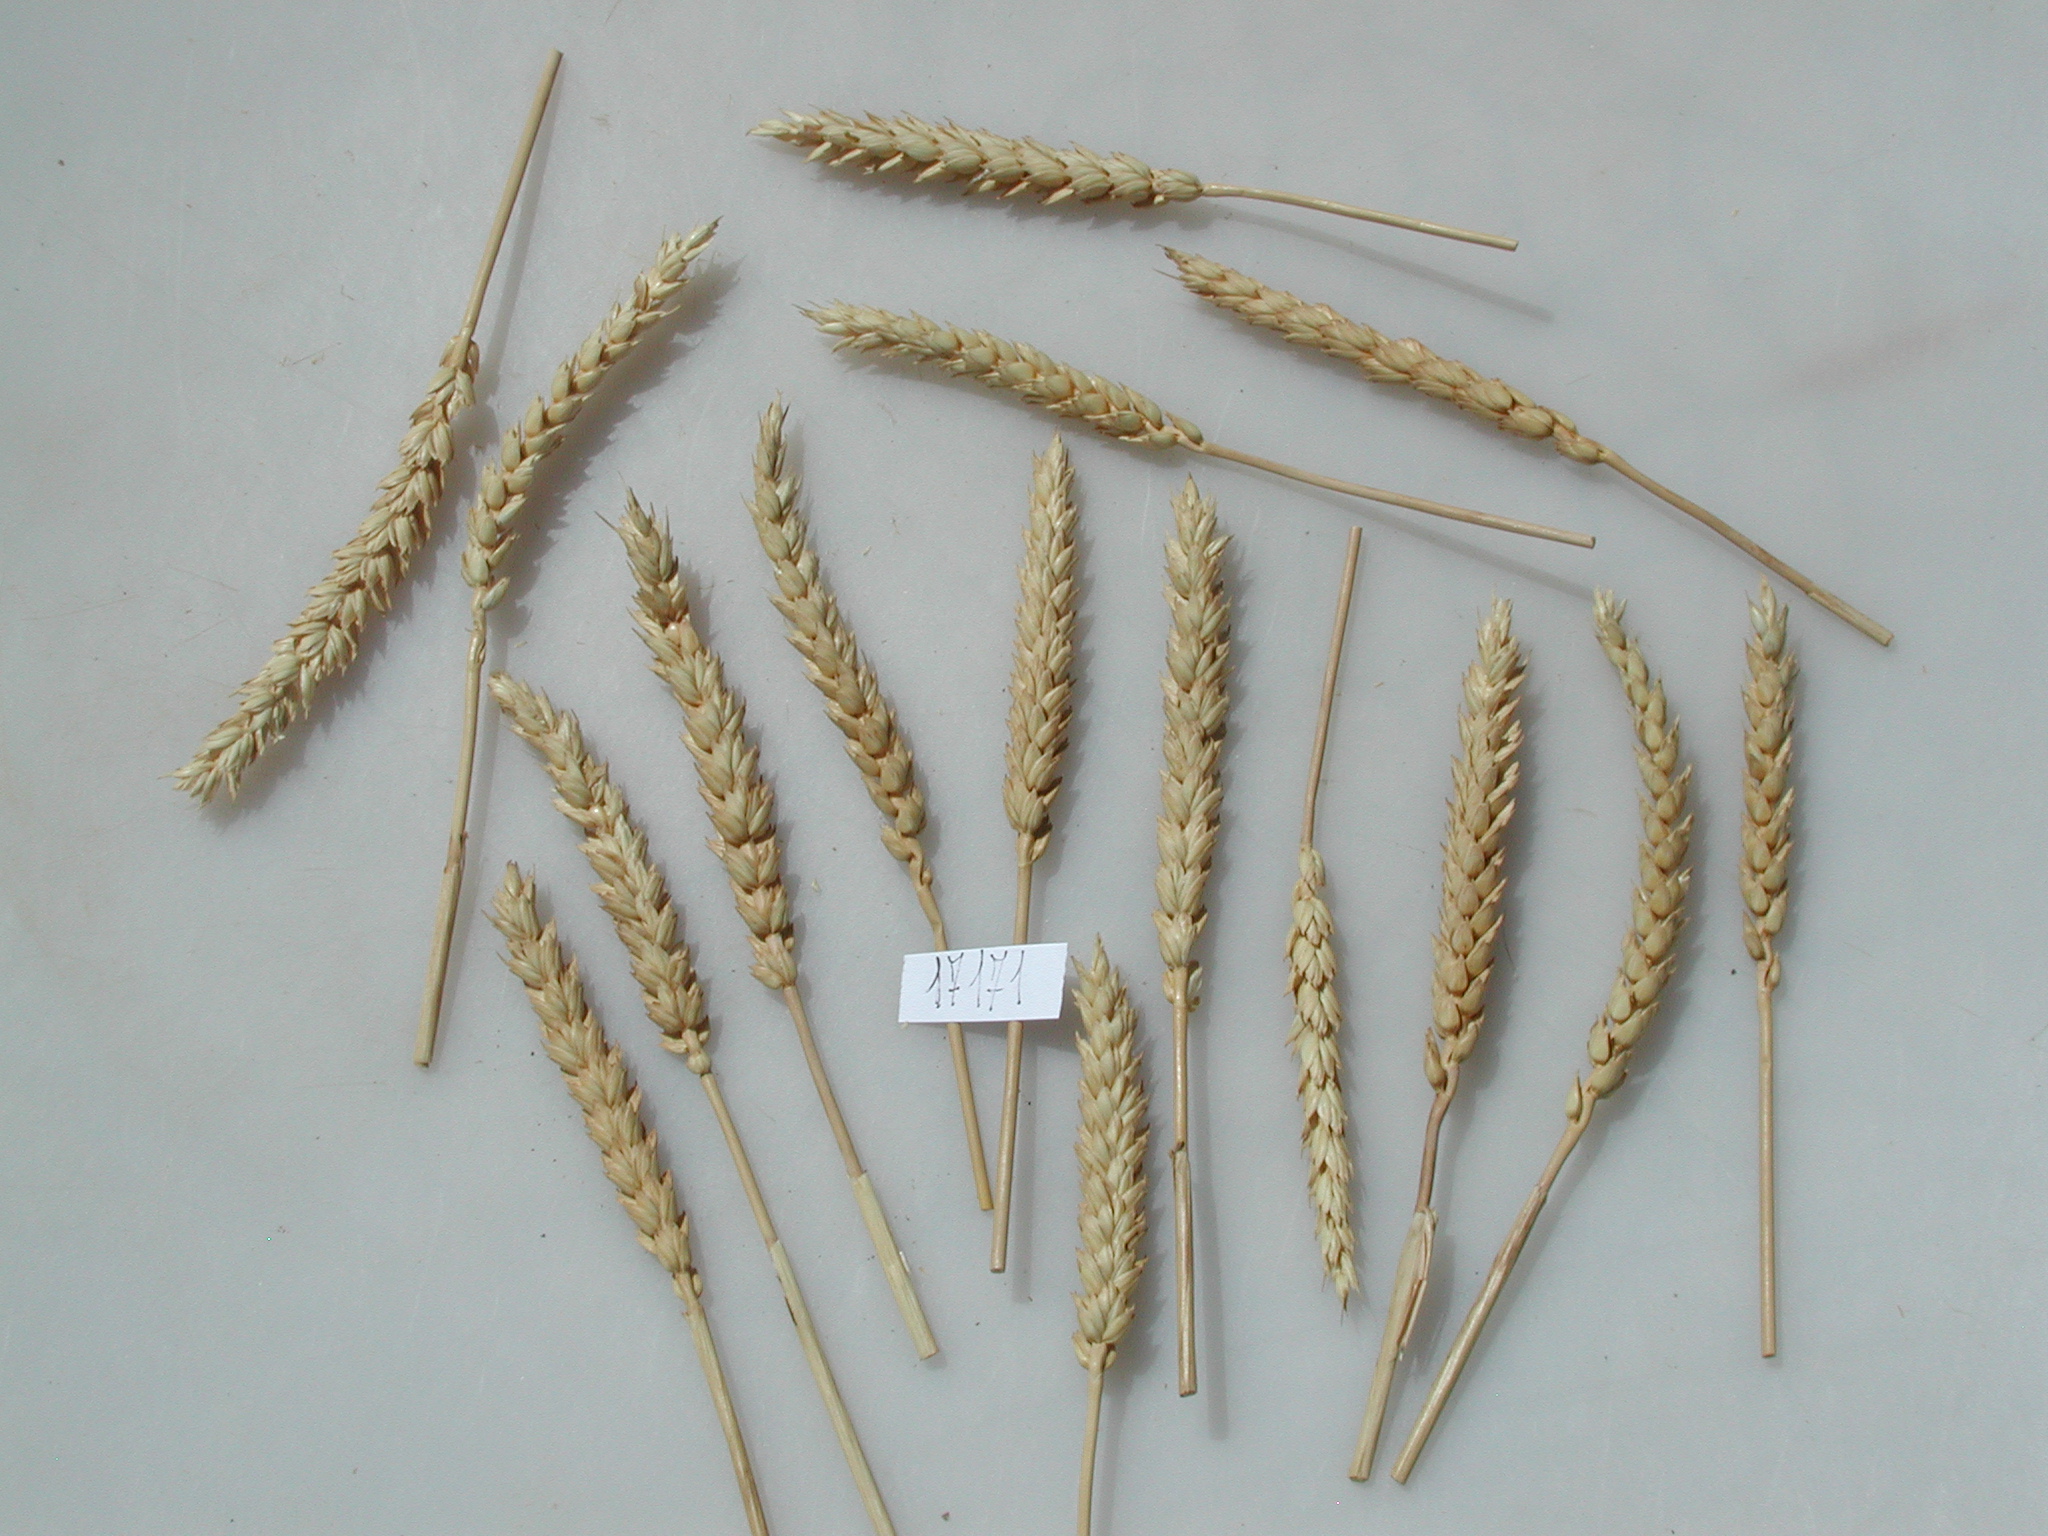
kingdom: Plantae
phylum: Tracheophyta
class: Liliopsida
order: Poales
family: Poaceae
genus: Triticum
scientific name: Triticum
